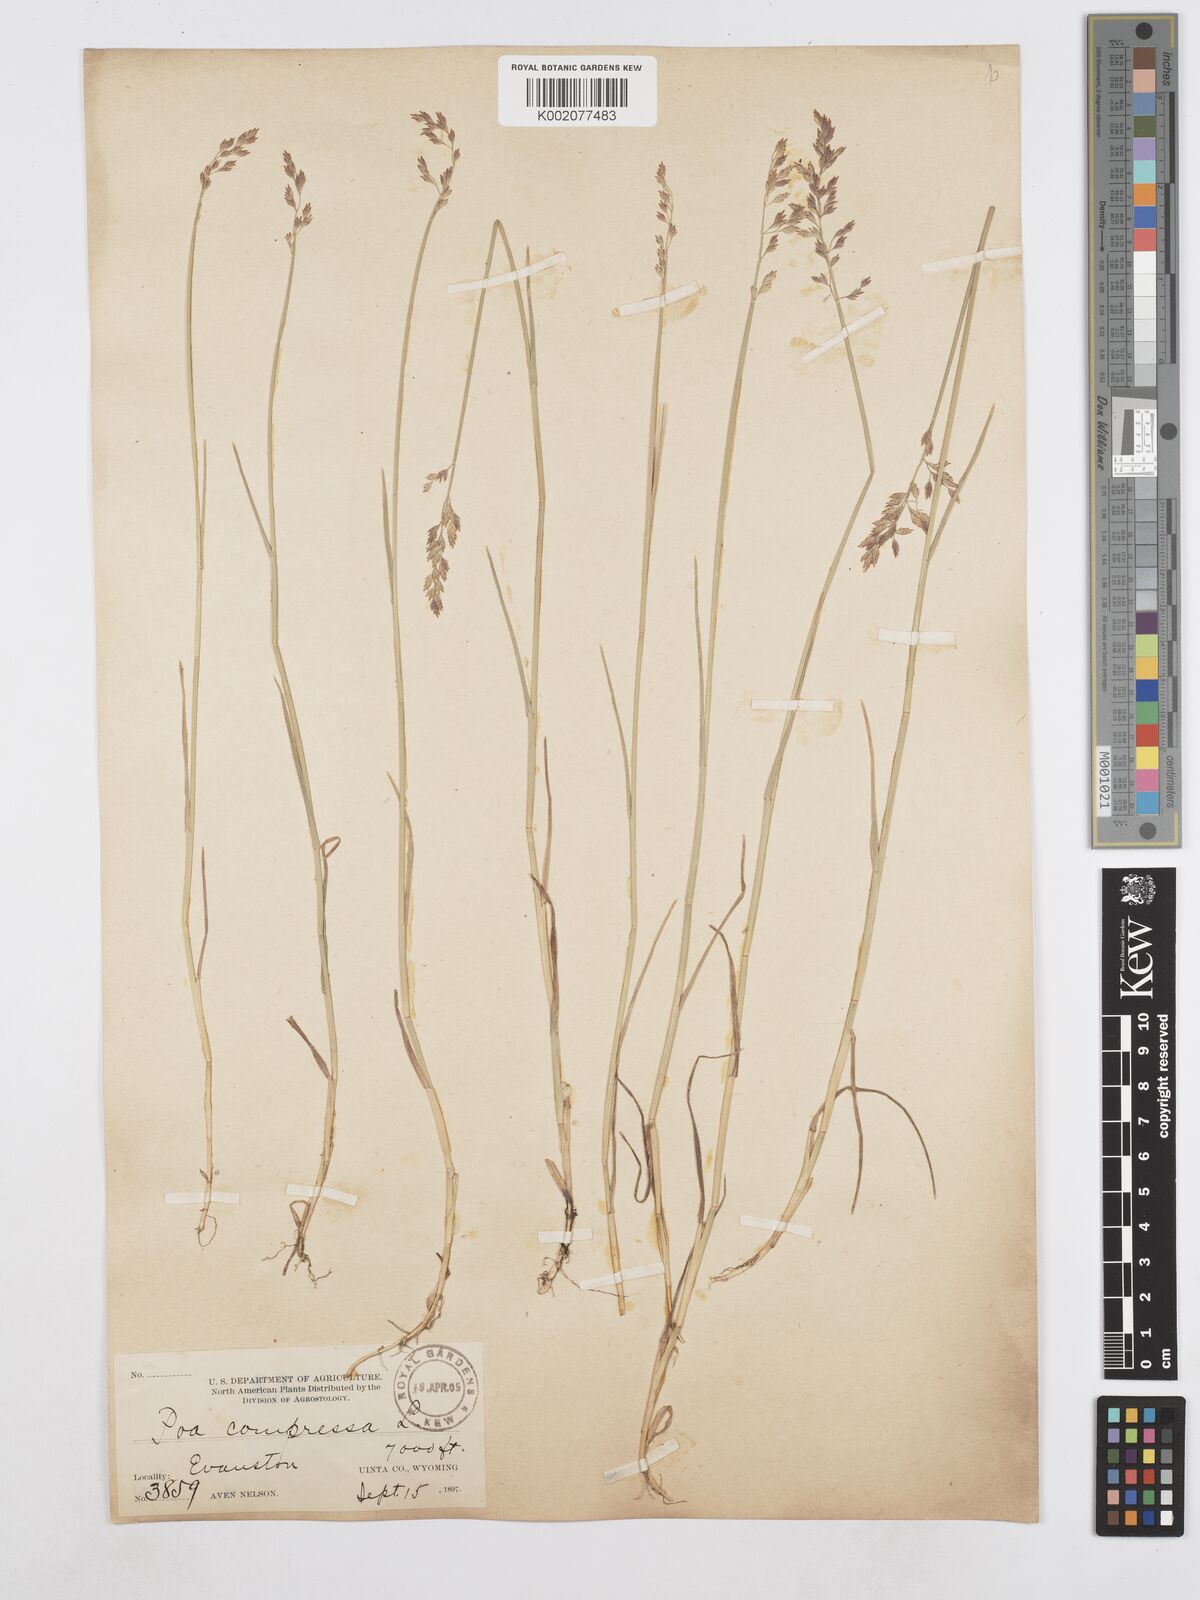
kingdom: Plantae
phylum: Tracheophyta
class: Liliopsida
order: Poales
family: Poaceae
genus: Poa
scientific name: Poa compressa
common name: Canada bluegrass
